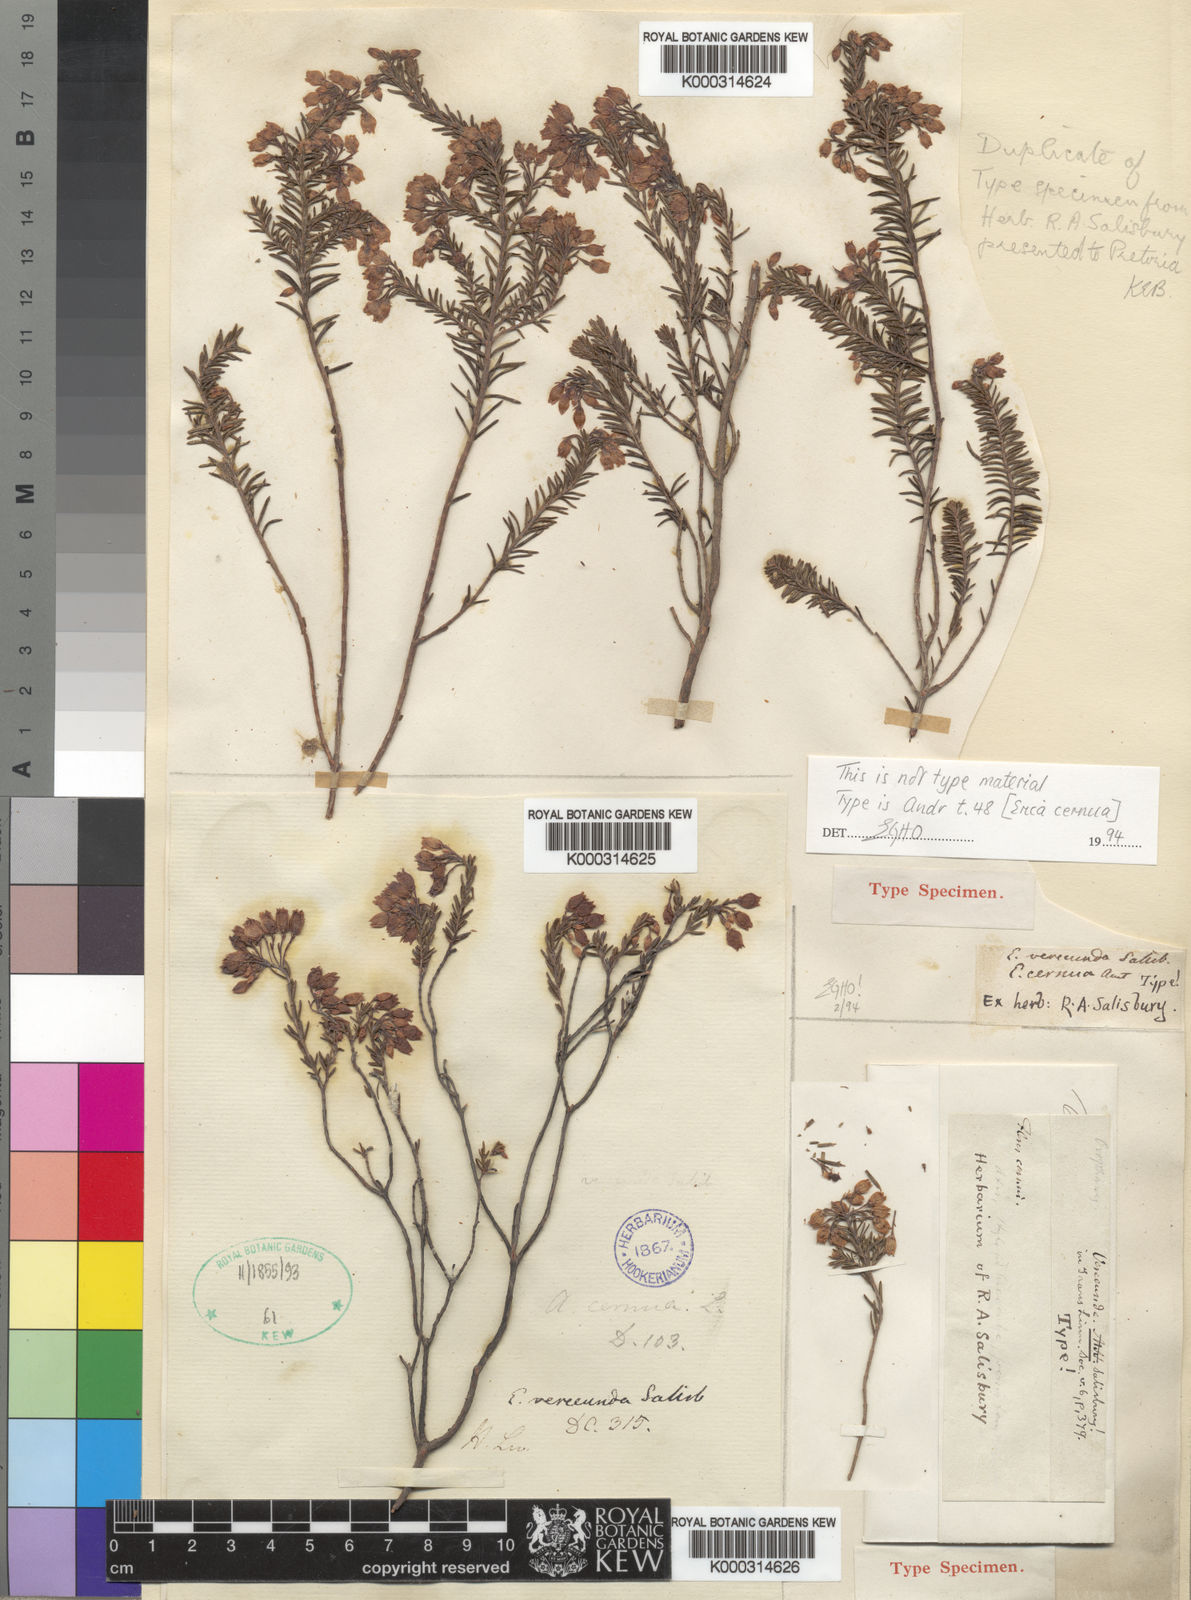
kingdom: Plantae
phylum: Tracheophyta
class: Magnoliopsida
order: Ericales
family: Ericaceae
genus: Erica
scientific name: Erica verecunda
